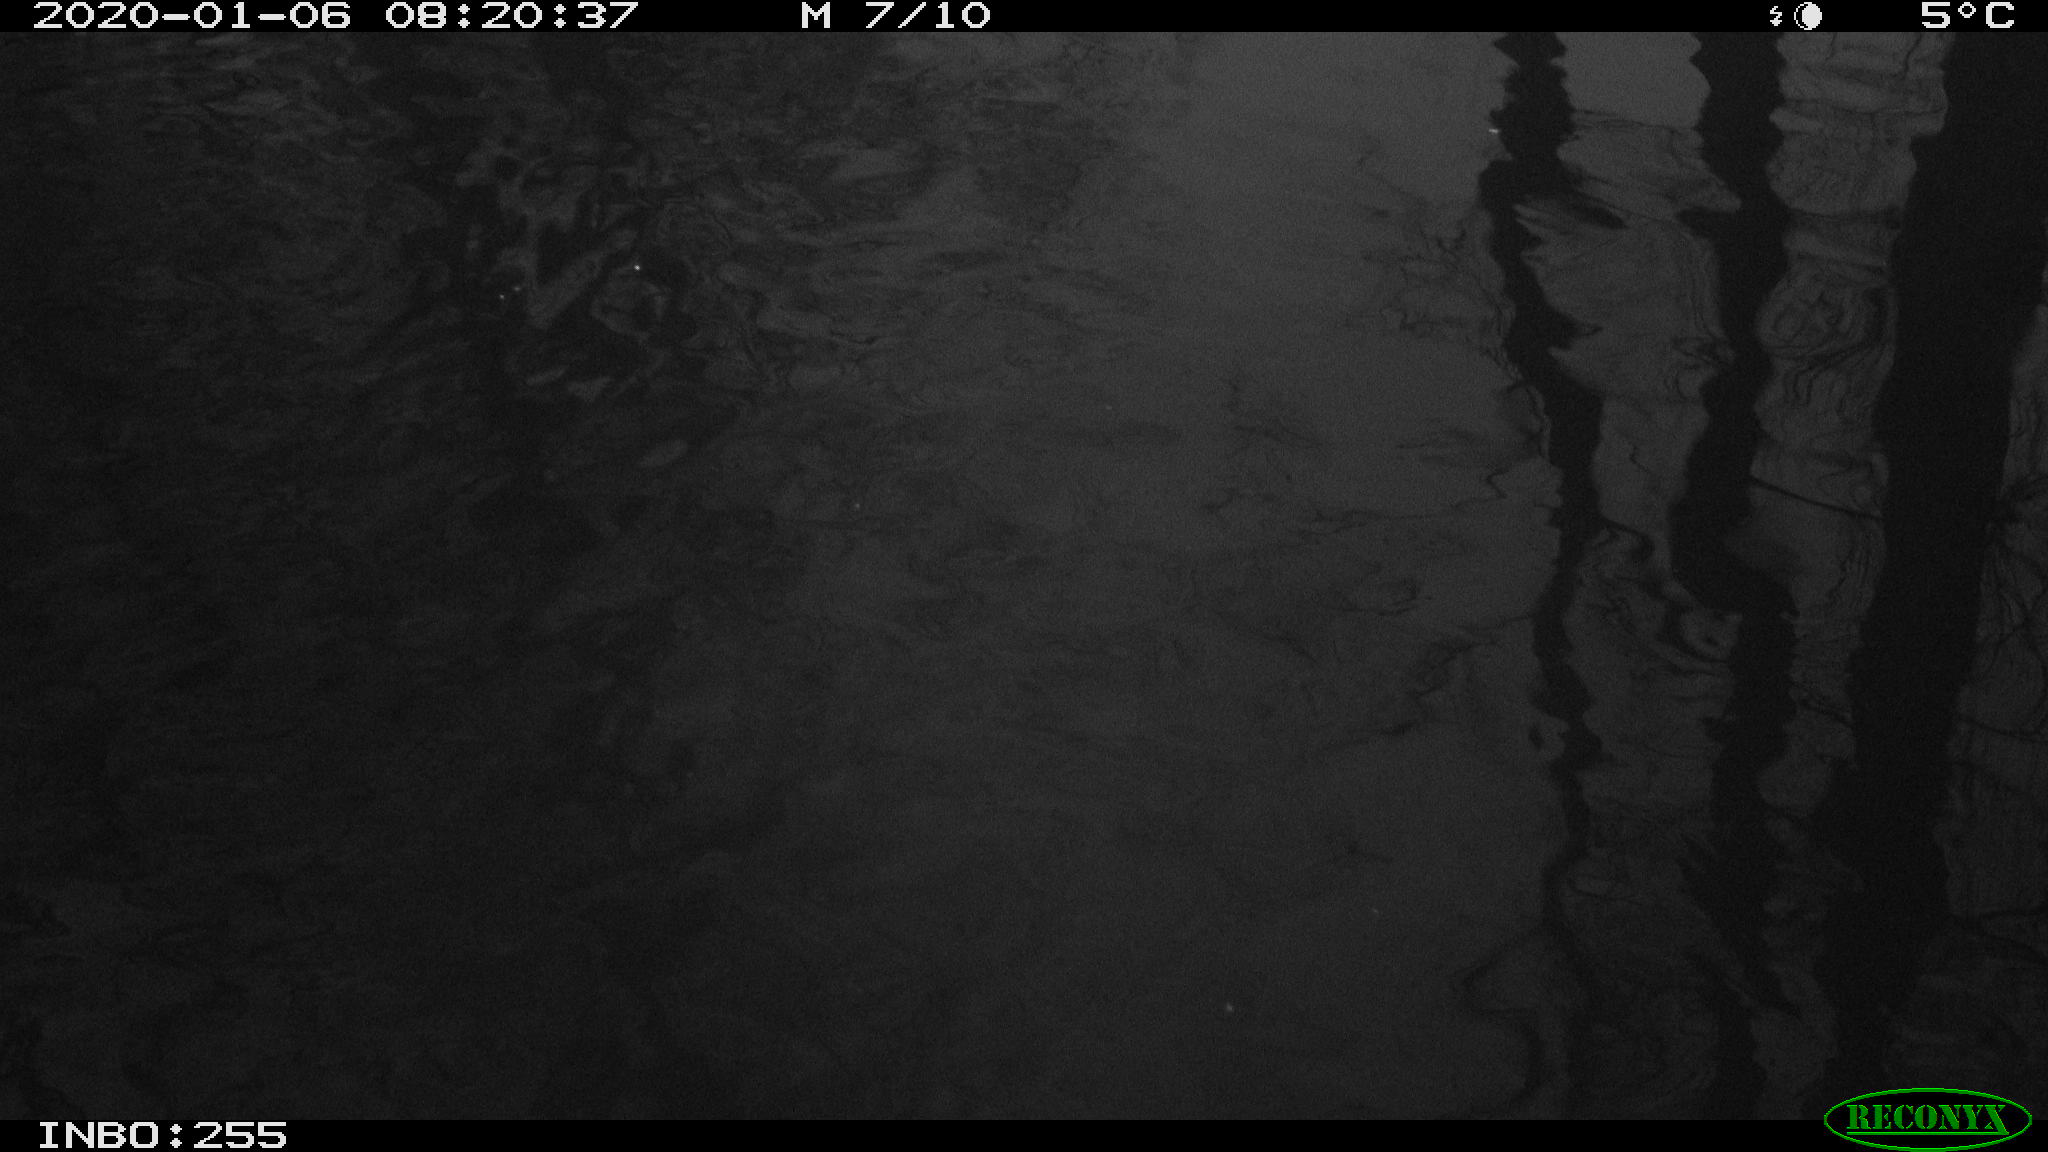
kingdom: Animalia
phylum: Chordata
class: Aves
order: Gruiformes
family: Rallidae
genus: Gallinula
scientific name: Gallinula chloropus
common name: Common moorhen
